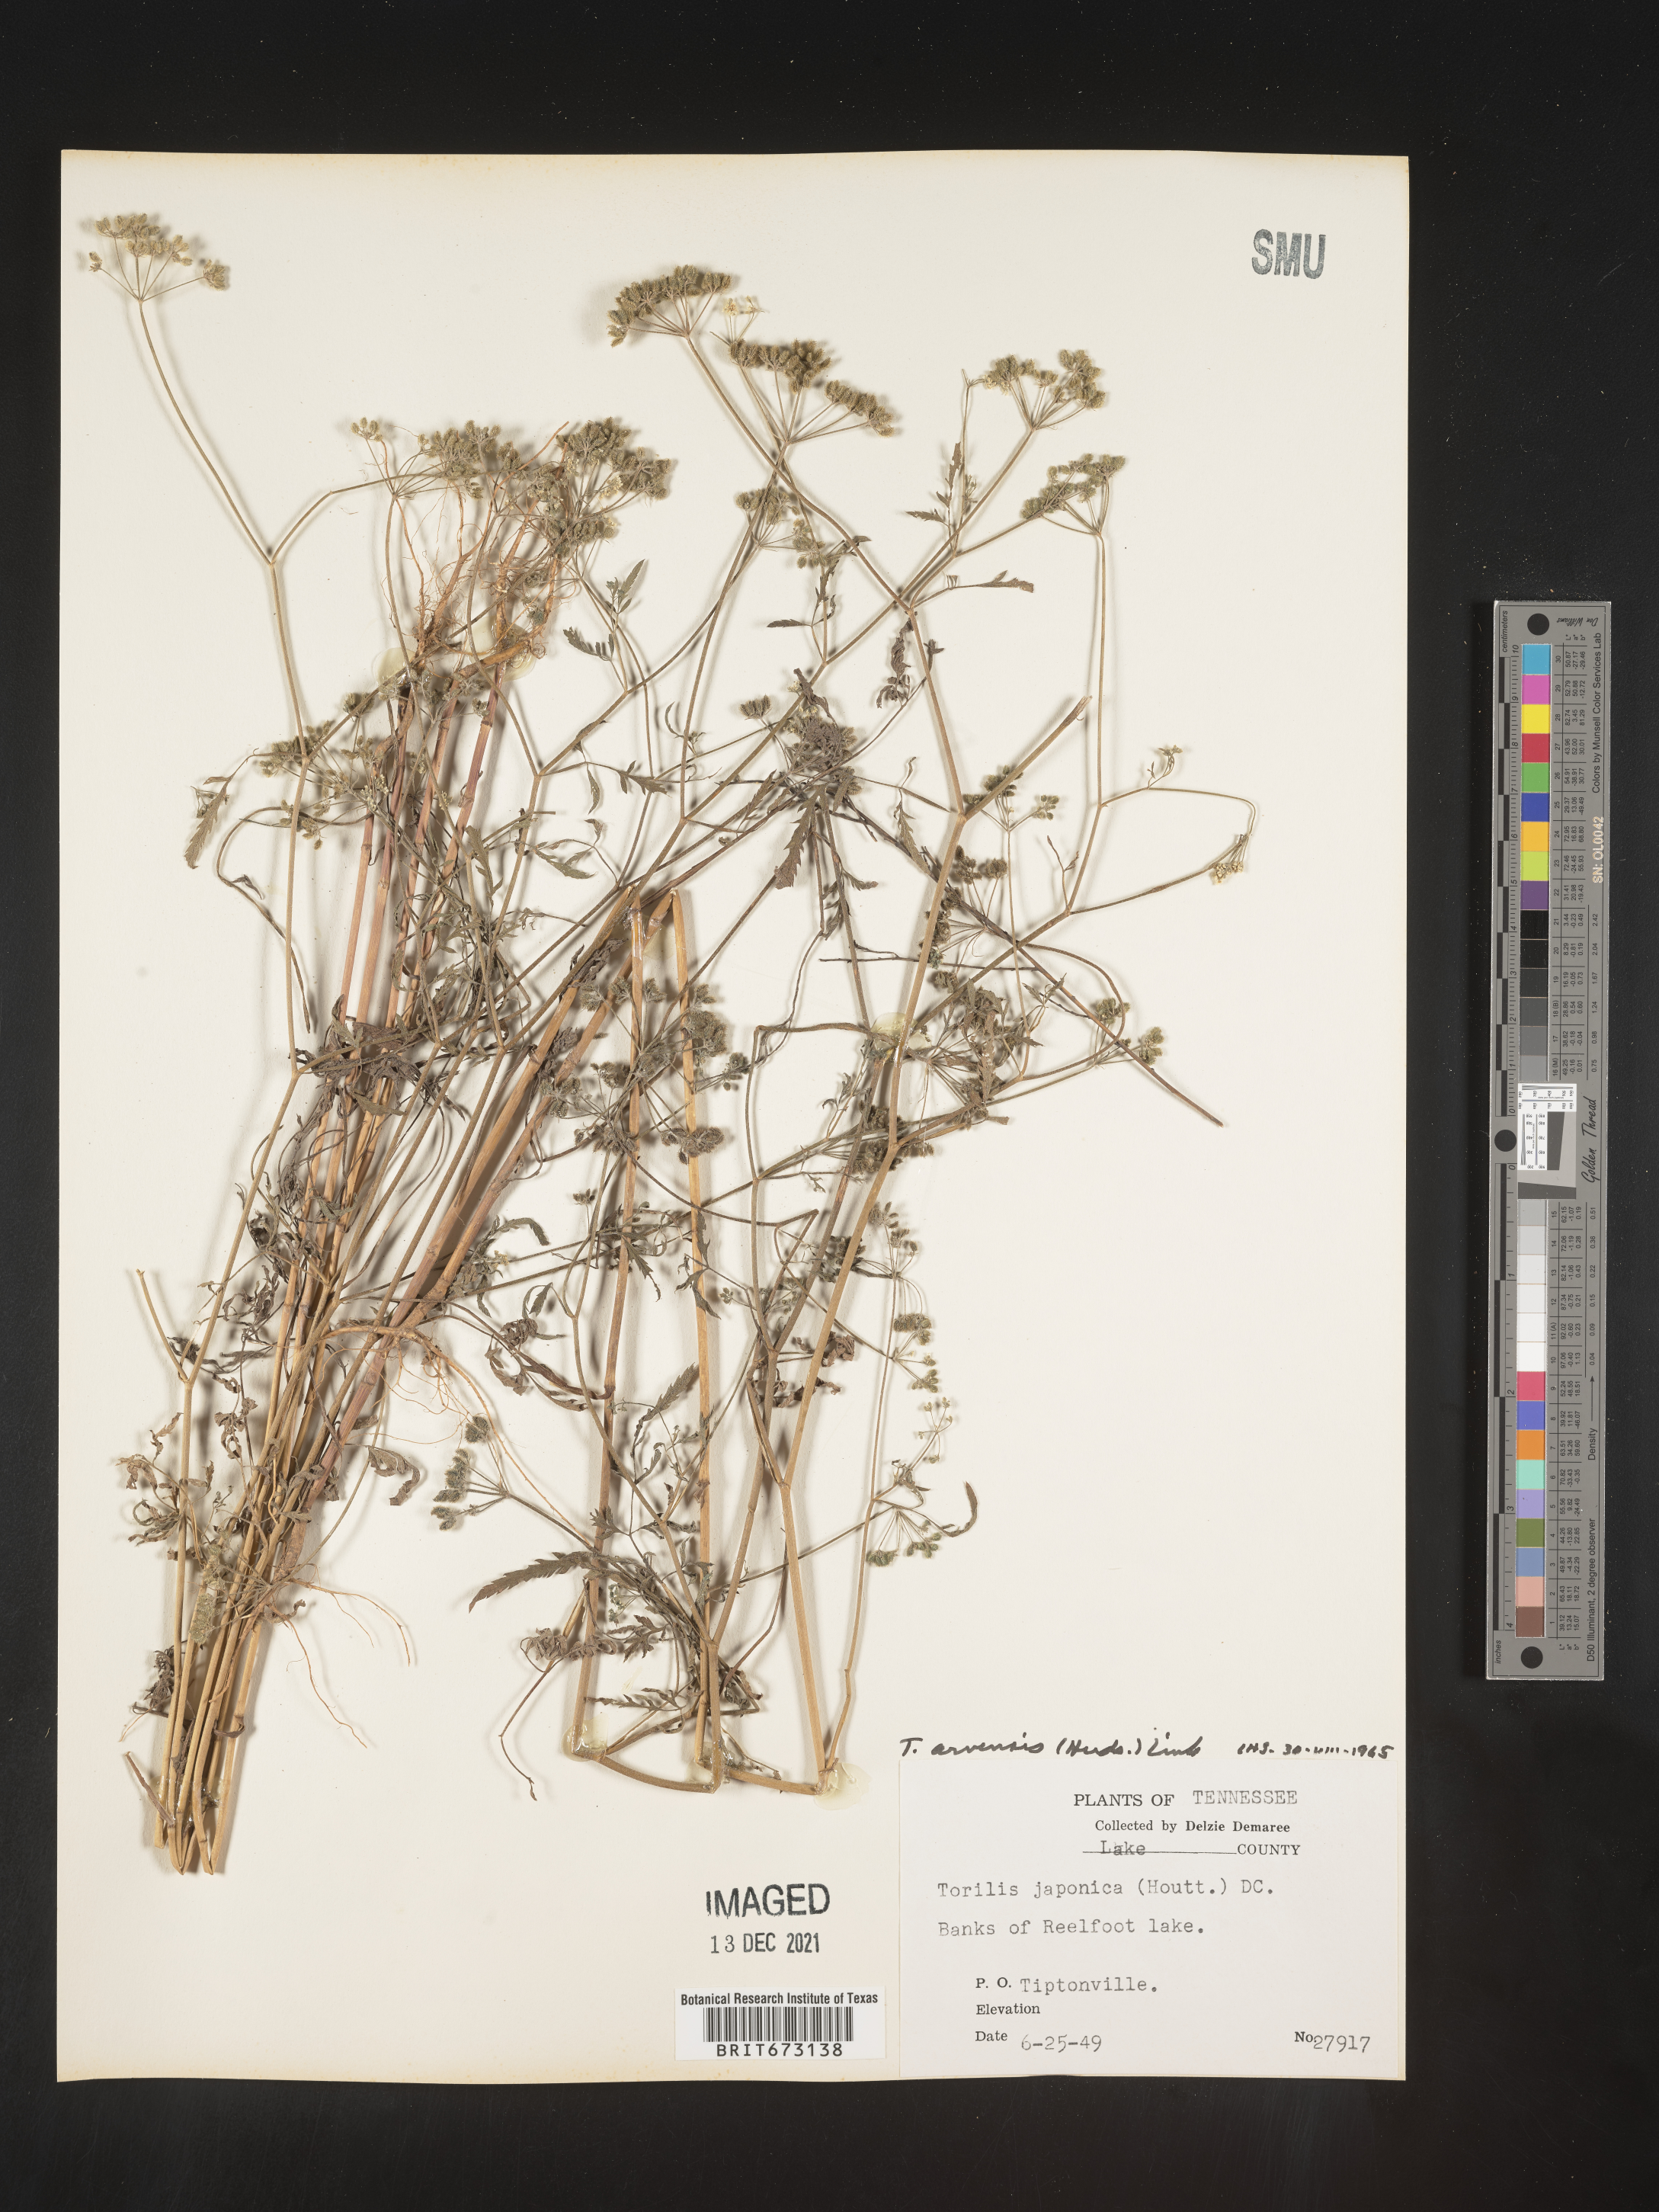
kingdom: Plantae
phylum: Tracheophyta
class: Magnoliopsida
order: Apiales
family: Apiaceae
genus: Torilis
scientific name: Torilis arvensis
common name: Spreading hedge-parsley
